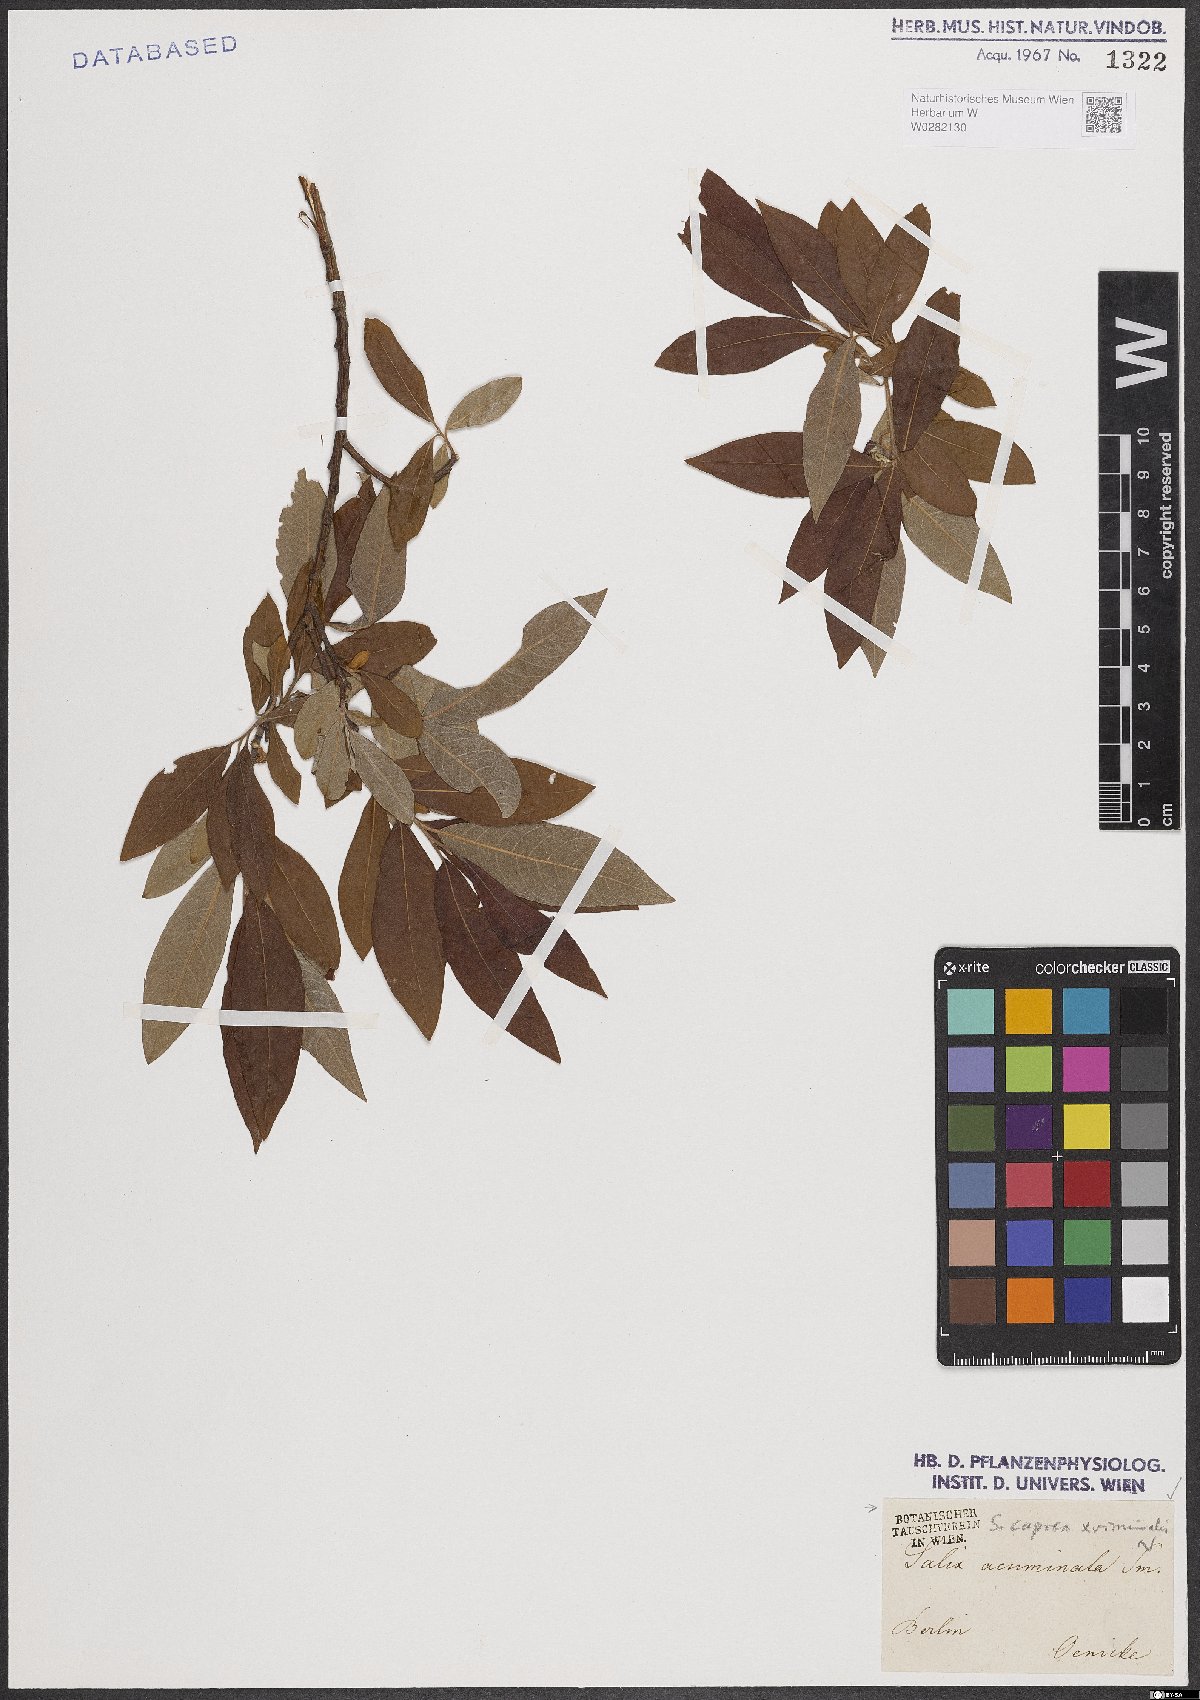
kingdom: Plantae
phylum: Tracheophyta
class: Magnoliopsida
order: Malpighiales
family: Salicaceae
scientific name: Salicaceae
